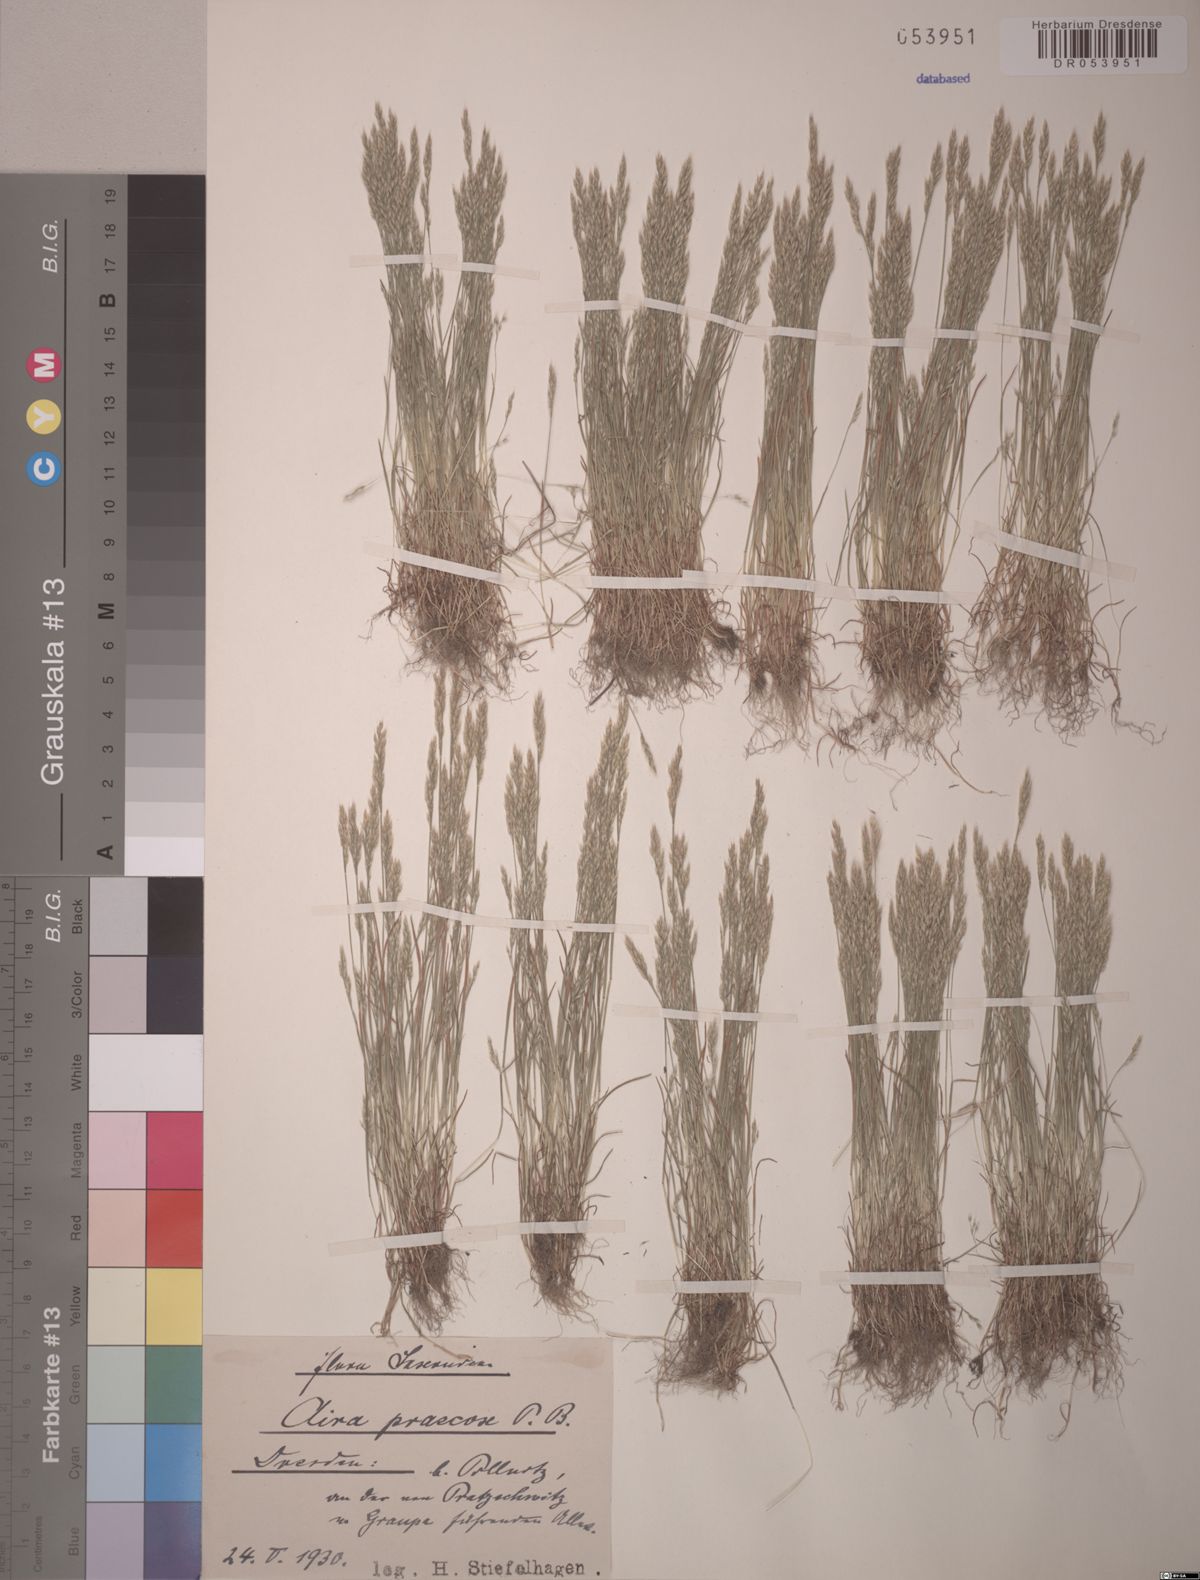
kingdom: Plantae
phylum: Tracheophyta
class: Liliopsida
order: Poales
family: Poaceae
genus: Aira
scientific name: Aira praecox
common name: Early hair-grass
